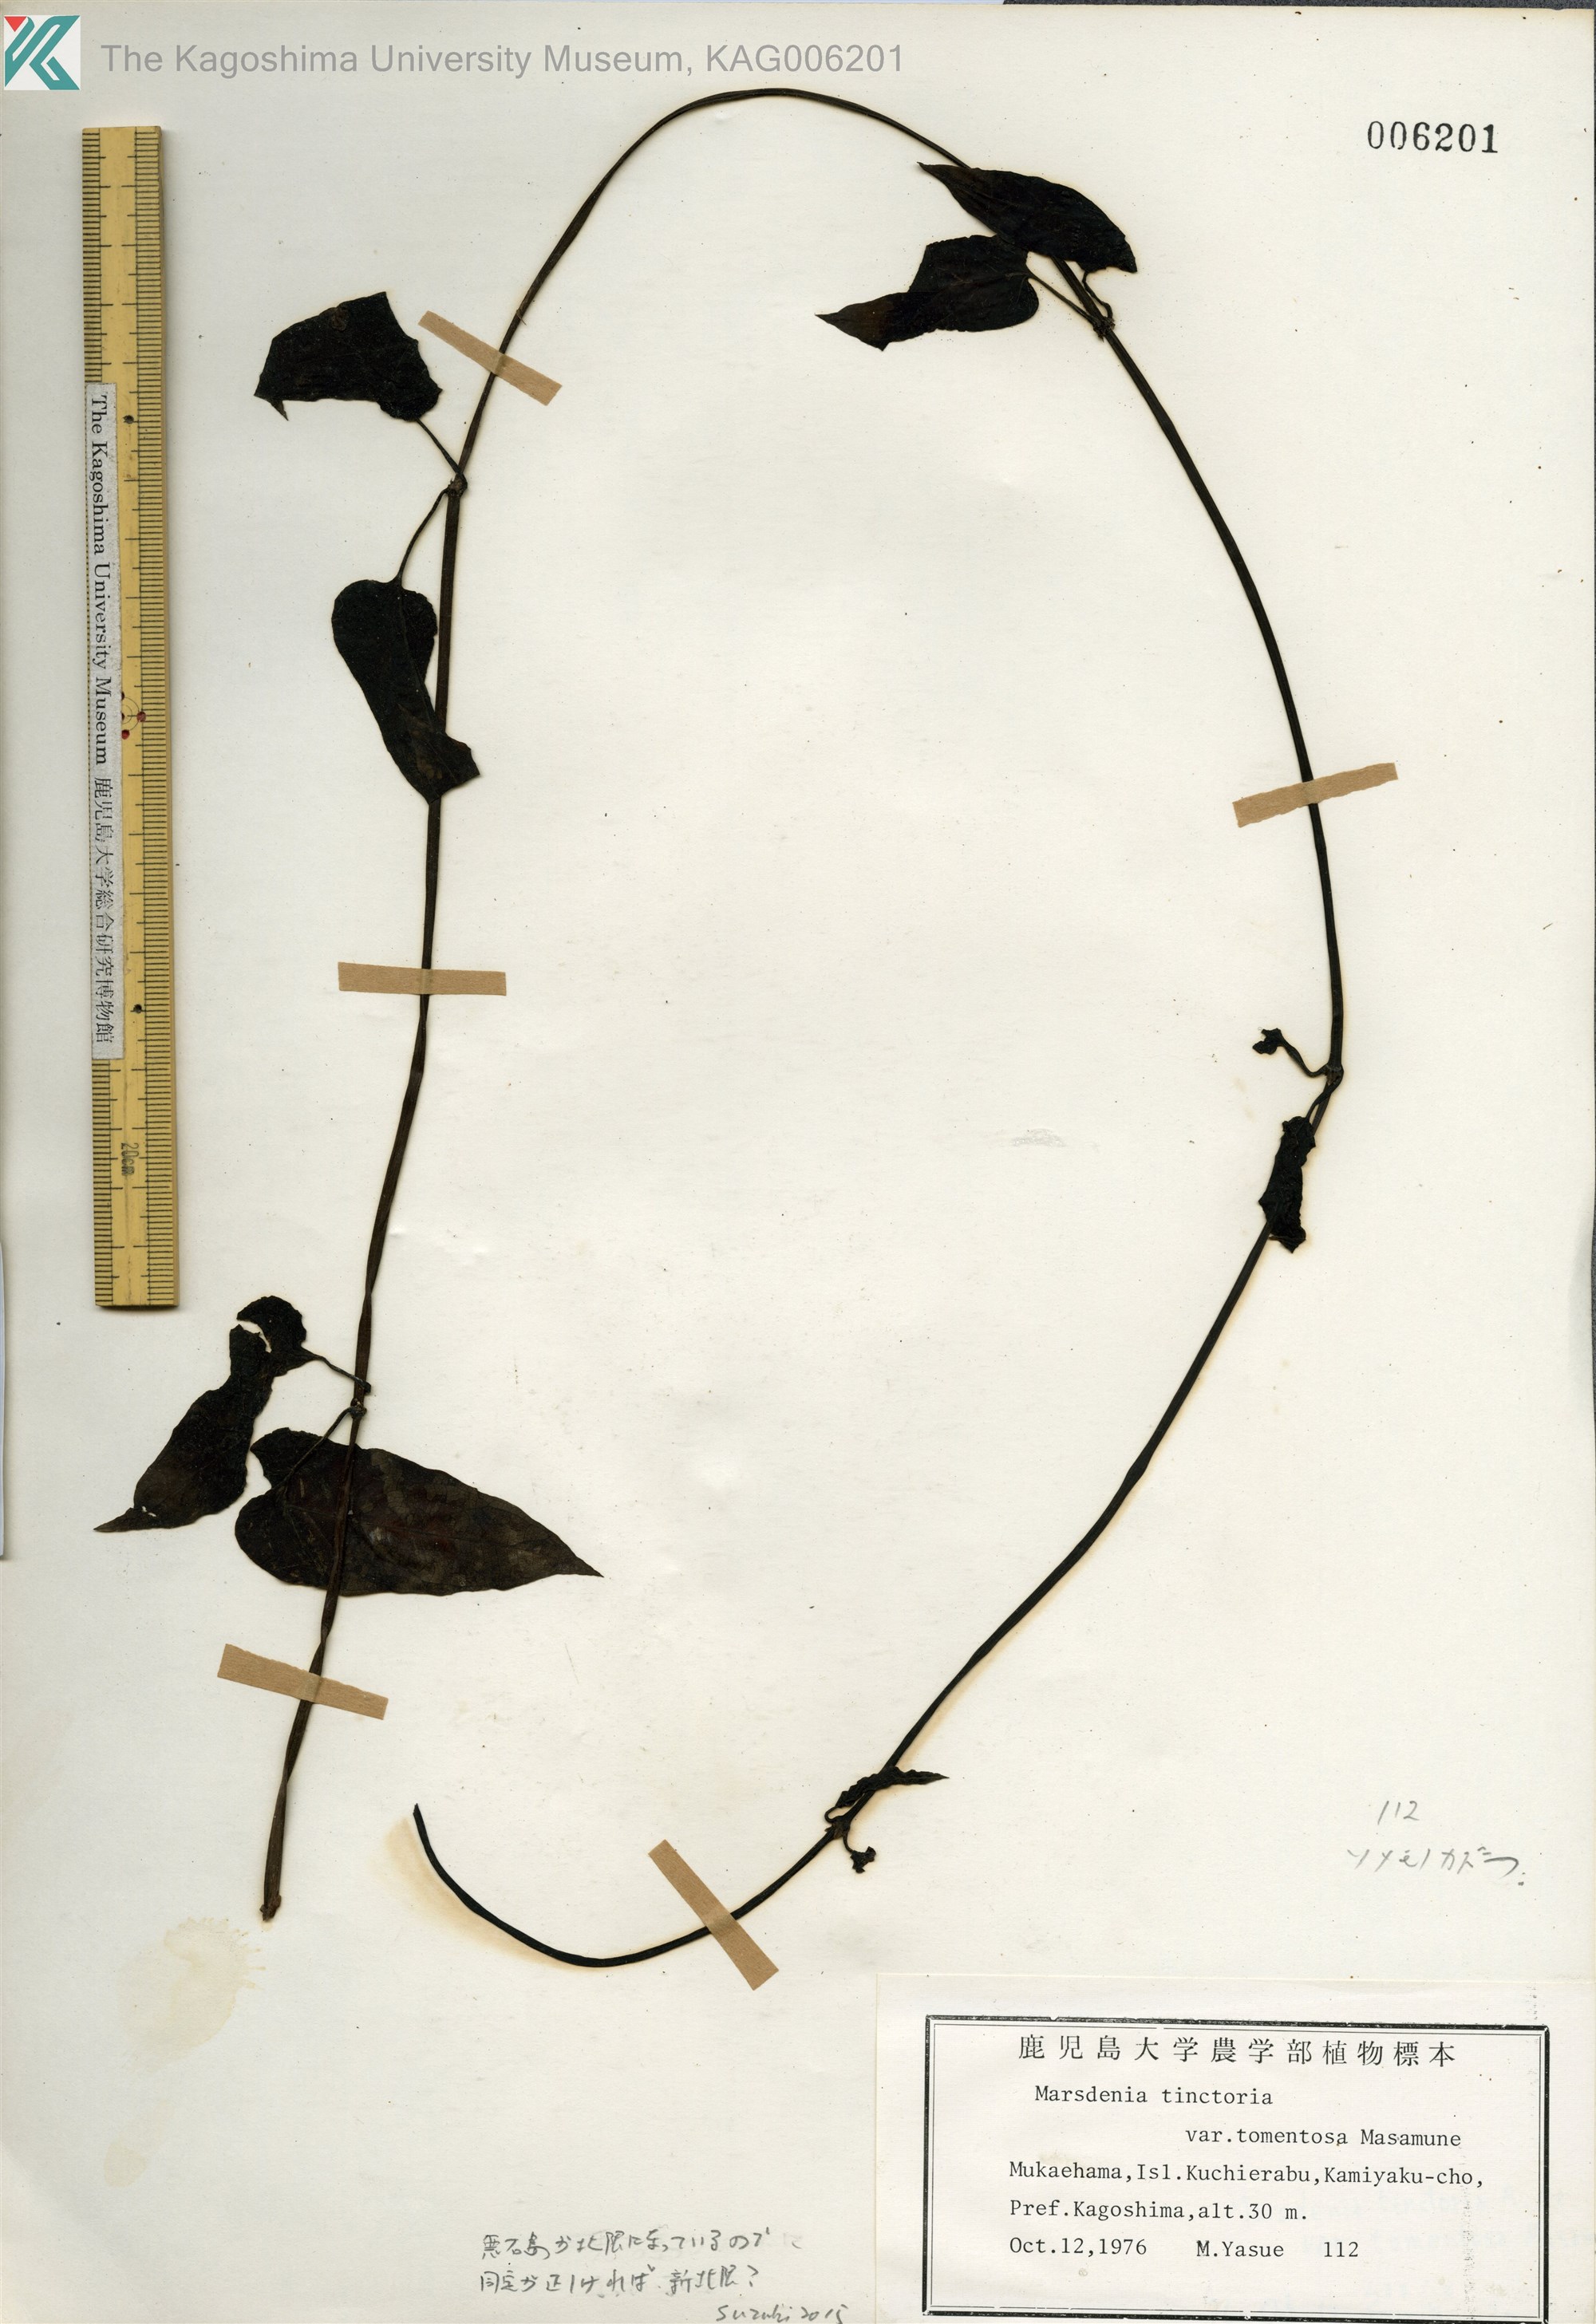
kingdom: Plantae
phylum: Tracheophyta
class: Magnoliopsida
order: Gentianales
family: Apocynaceae
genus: Marsdenia
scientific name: Marsdenia tinctoria
